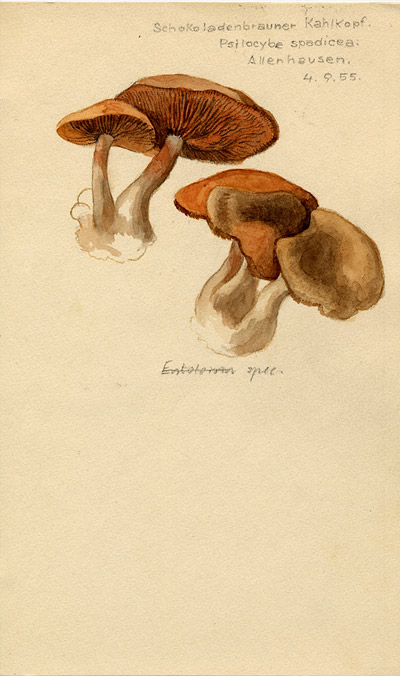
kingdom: Fungi
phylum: Basidiomycota
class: Agaricomycetes
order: Agaricales
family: Psathyrellaceae
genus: Homophron
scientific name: Homophron spadiceum
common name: Chestnut brittlestem
